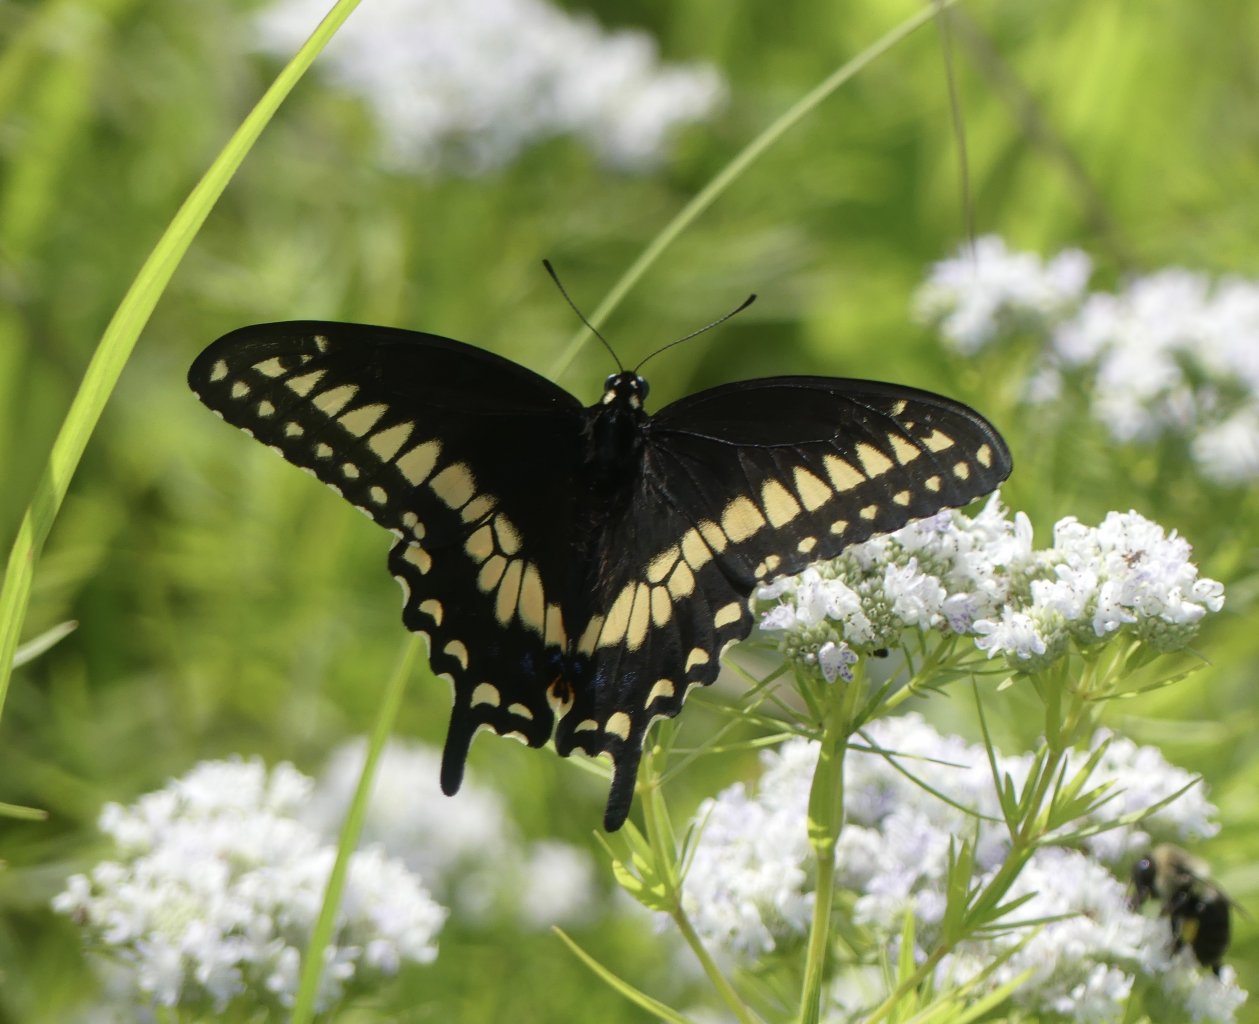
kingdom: Animalia
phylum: Arthropoda
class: Insecta
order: Lepidoptera
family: Papilionidae
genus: Papilio
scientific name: Papilio polyxenes
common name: Black Swallowtail
